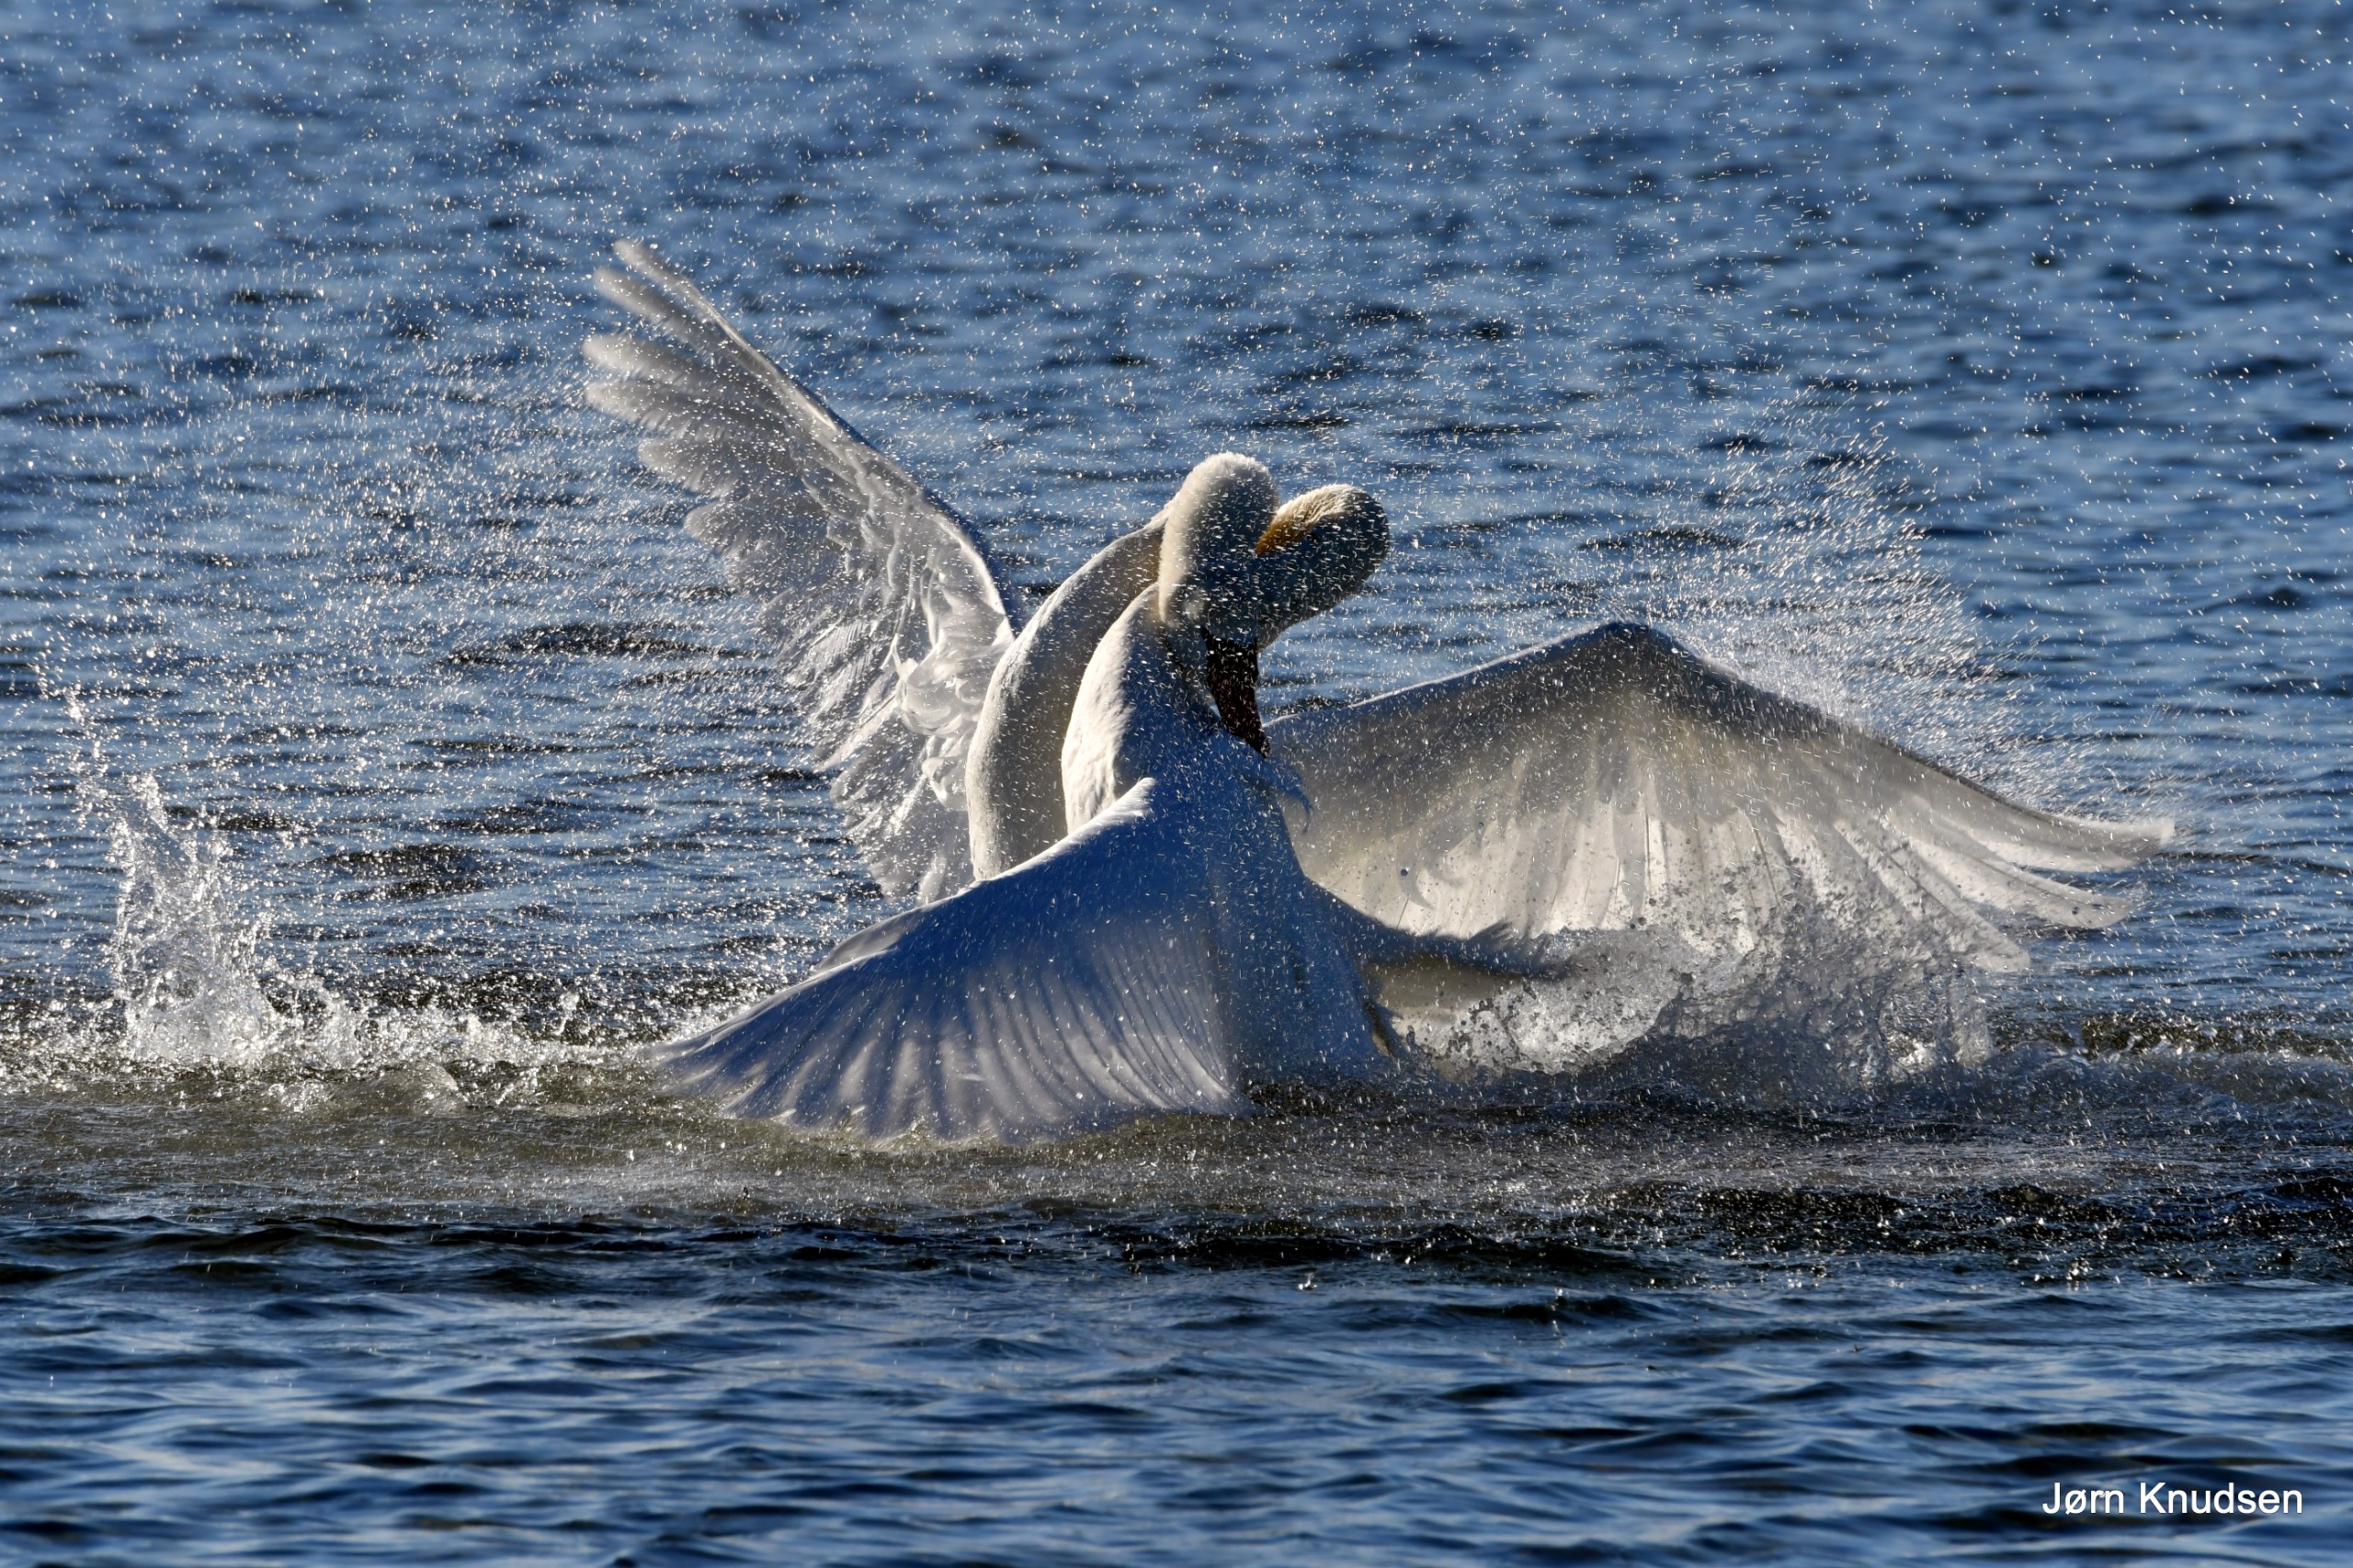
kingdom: Animalia
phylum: Chordata
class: Aves
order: Anseriformes
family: Anatidae
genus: Cygnus
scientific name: Cygnus olor
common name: Knopsvane
